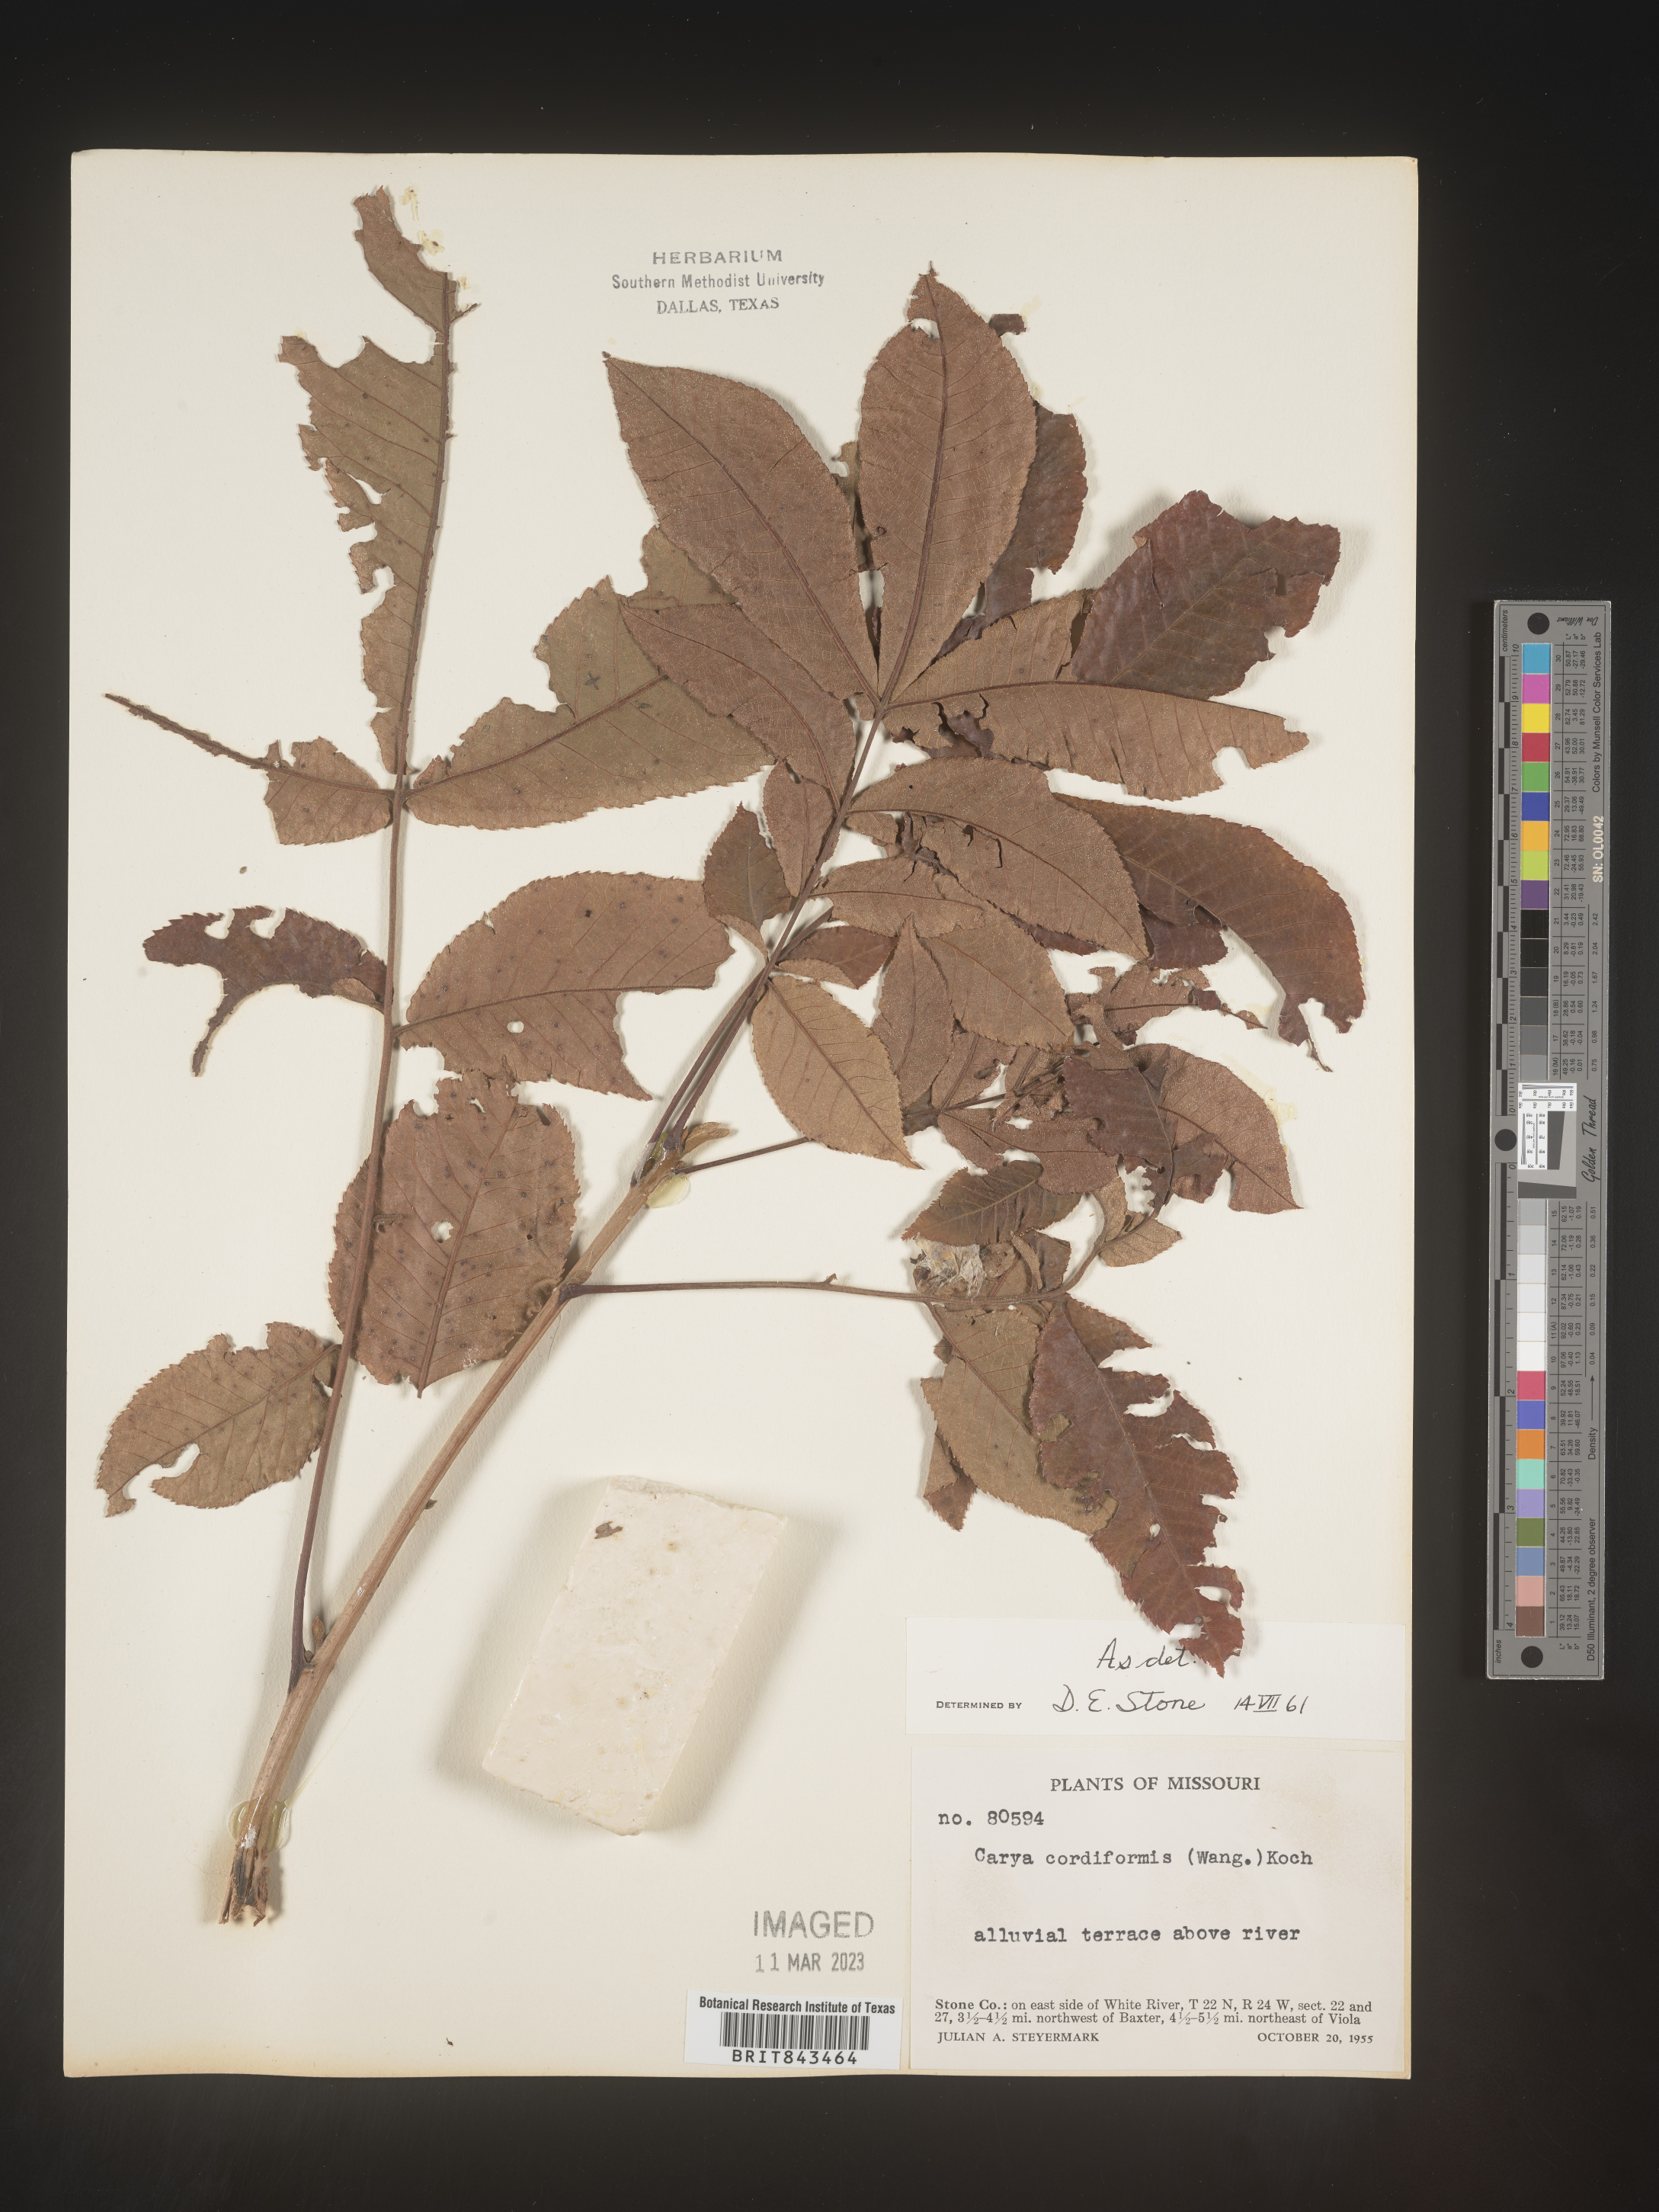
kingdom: Plantae
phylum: Tracheophyta
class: Magnoliopsida
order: Fagales
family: Juglandaceae
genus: Carya
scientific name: Carya cordiformis
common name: Bitternut hickory
